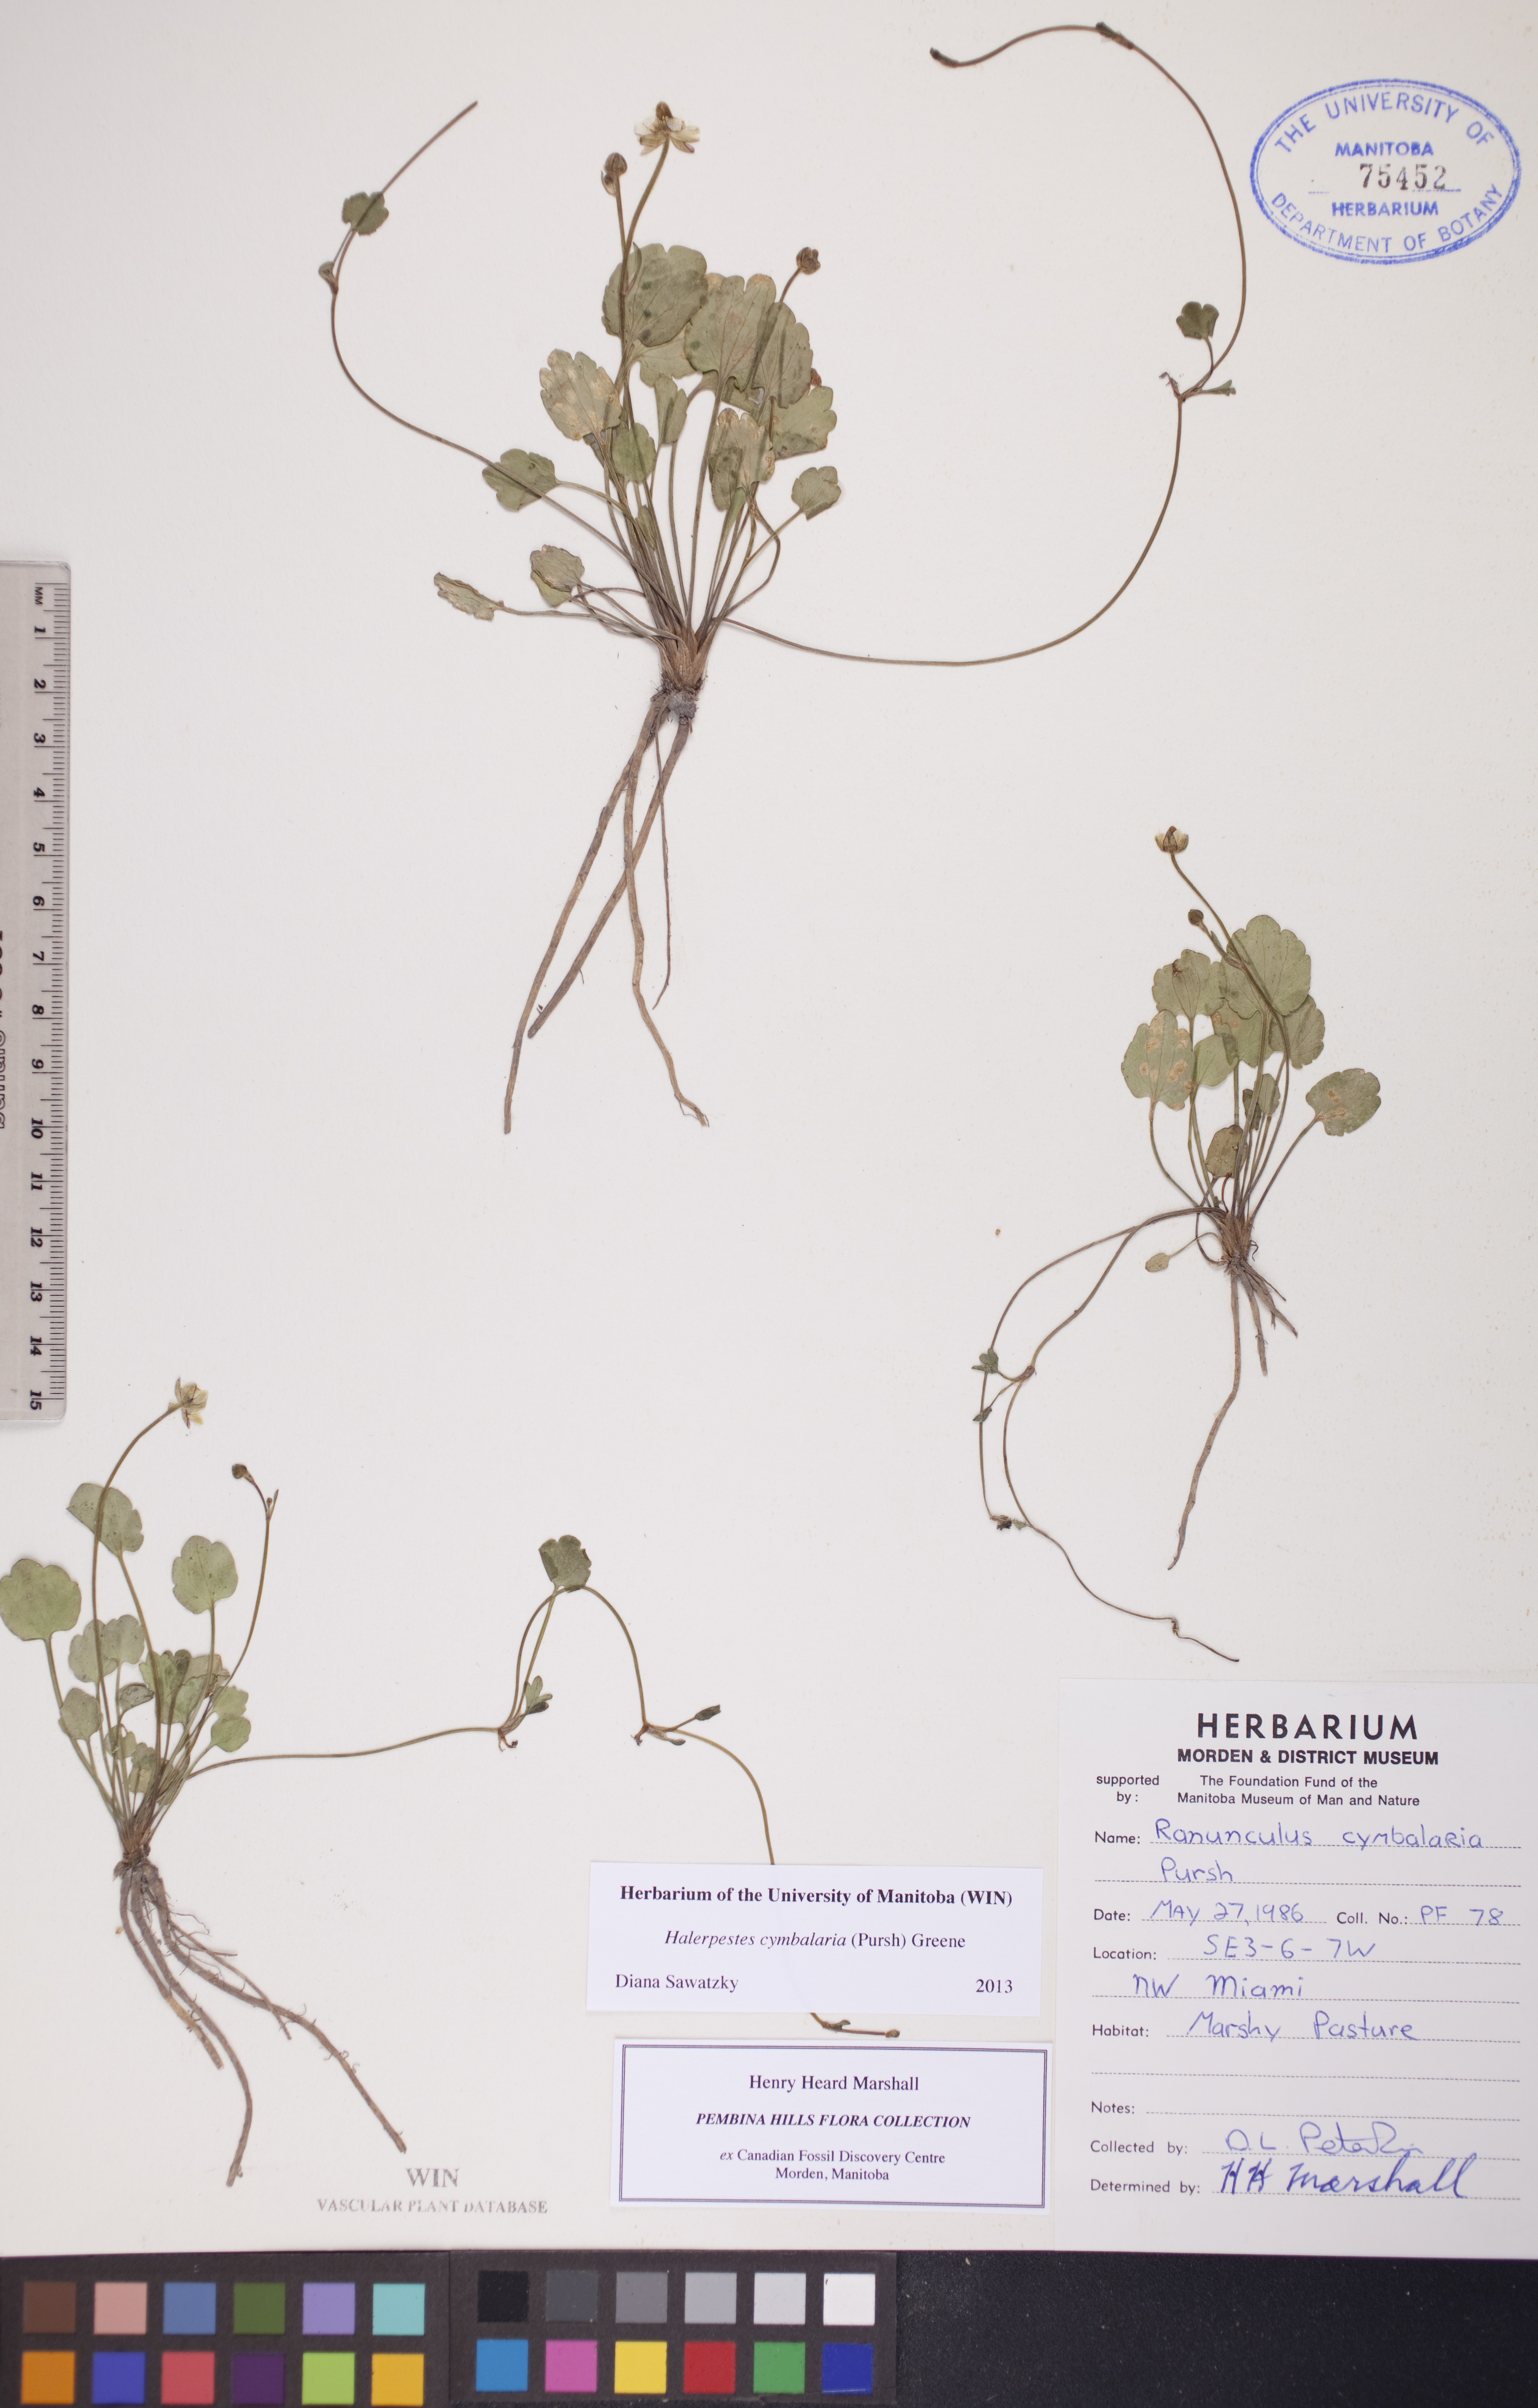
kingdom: Plantae
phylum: Tracheophyta
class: Magnoliopsida
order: Ranunculales
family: Ranunculaceae
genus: Halerpestes
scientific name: Halerpestes cymbalaria
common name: Seaside crowfoot
